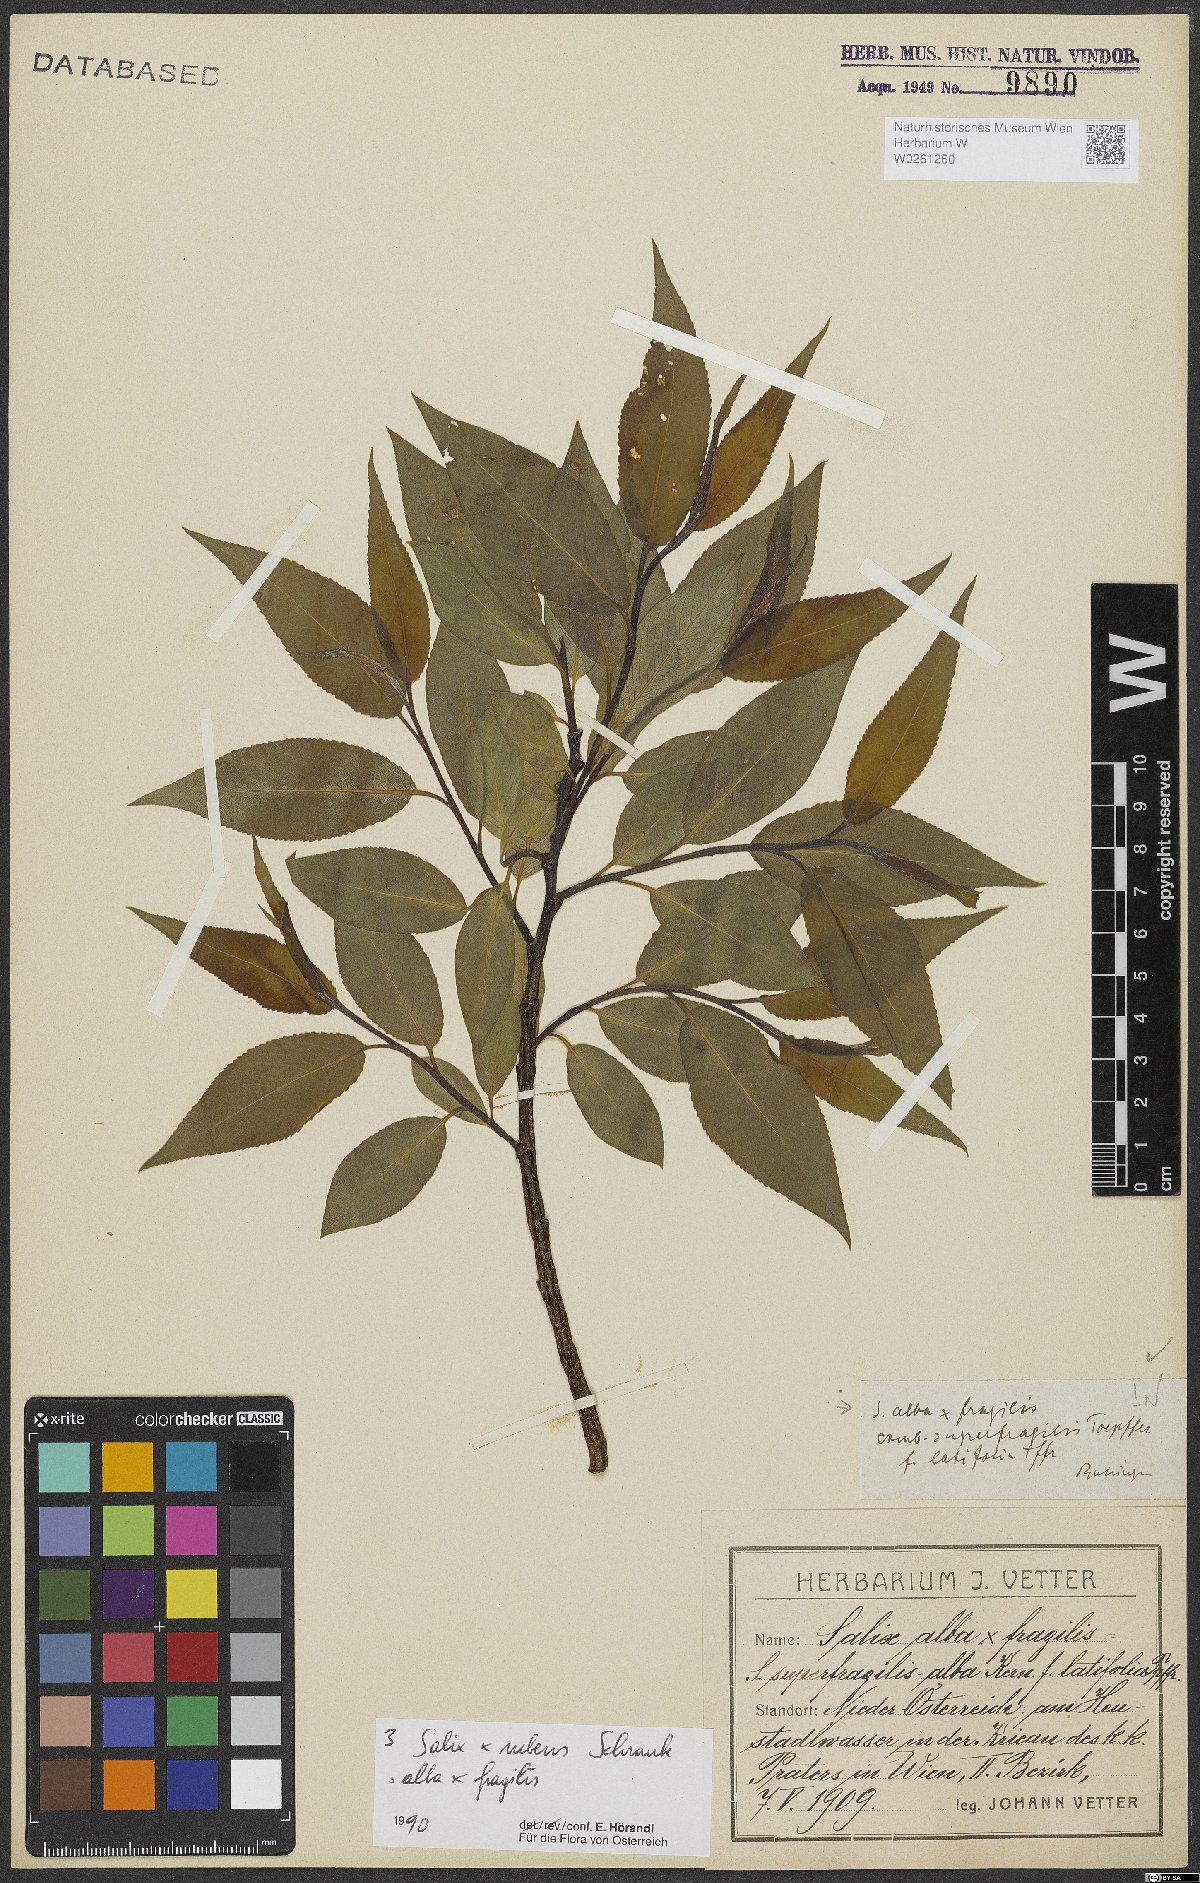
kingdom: Plantae
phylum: Tracheophyta
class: Magnoliopsida
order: Malpighiales
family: Salicaceae
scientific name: Salicaceae
